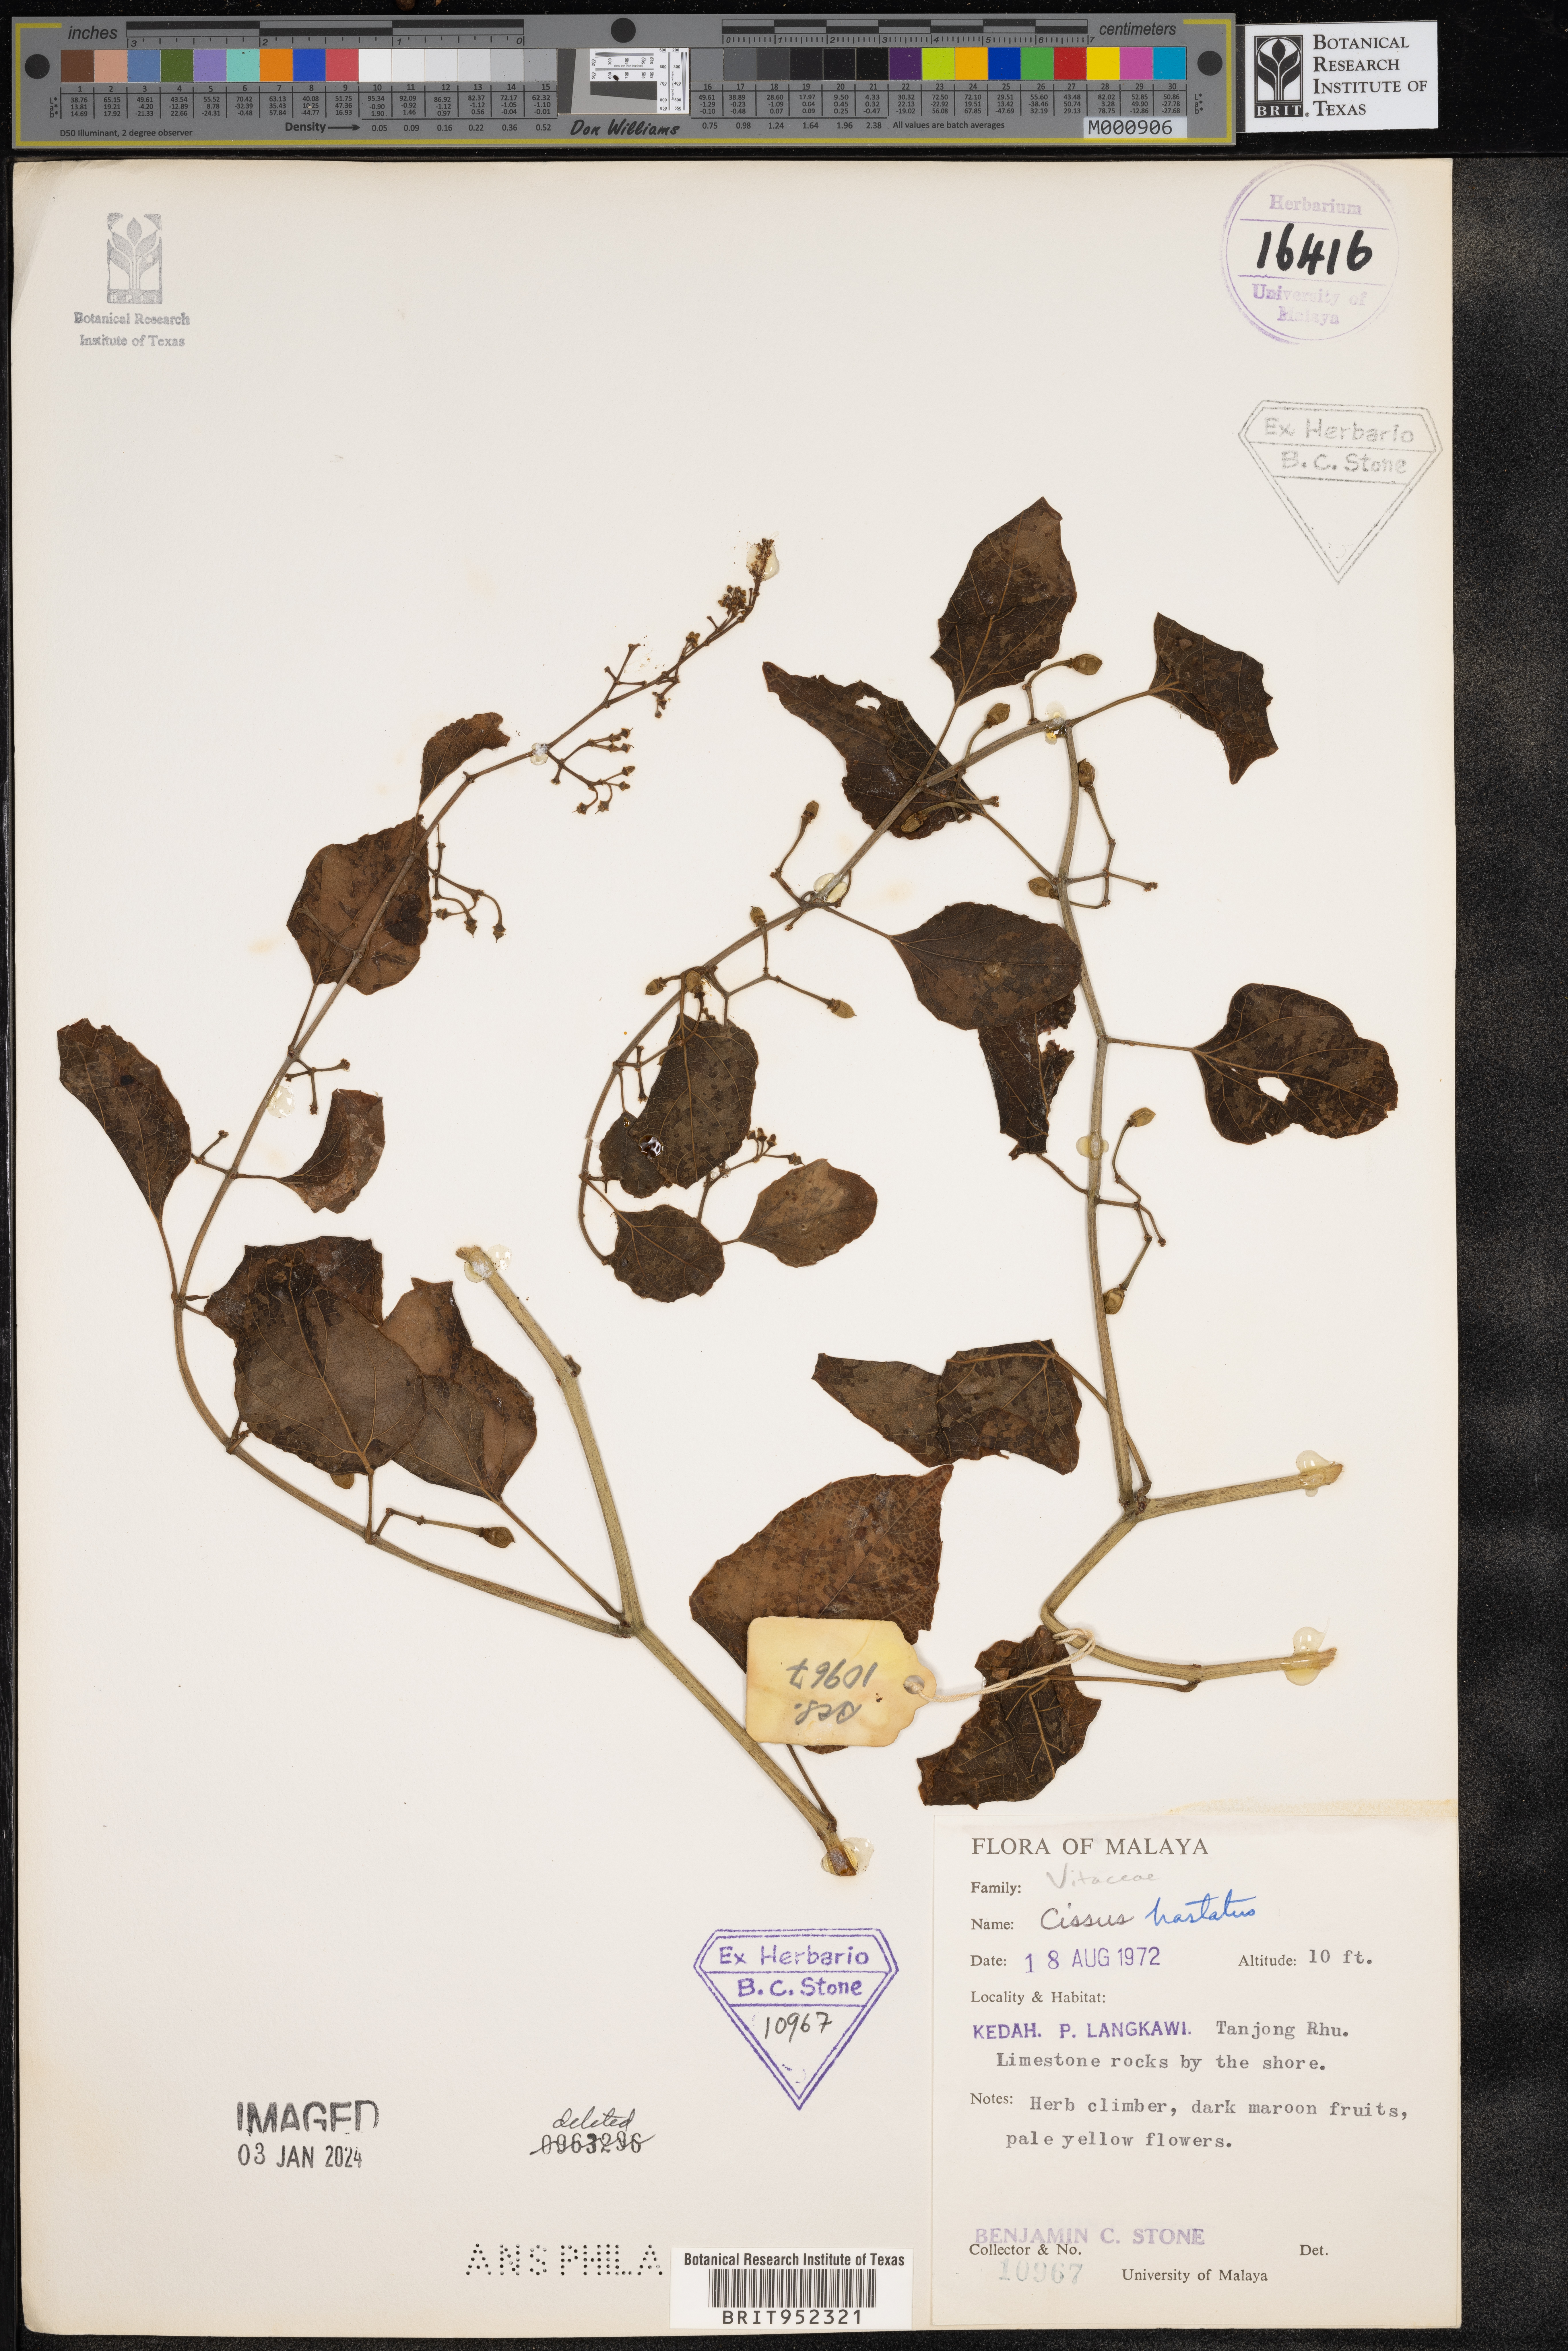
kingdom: Plantae
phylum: Tracheophyta
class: Magnoliopsida
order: Vitales
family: Vitaceae
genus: Cissus
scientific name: Cissus
